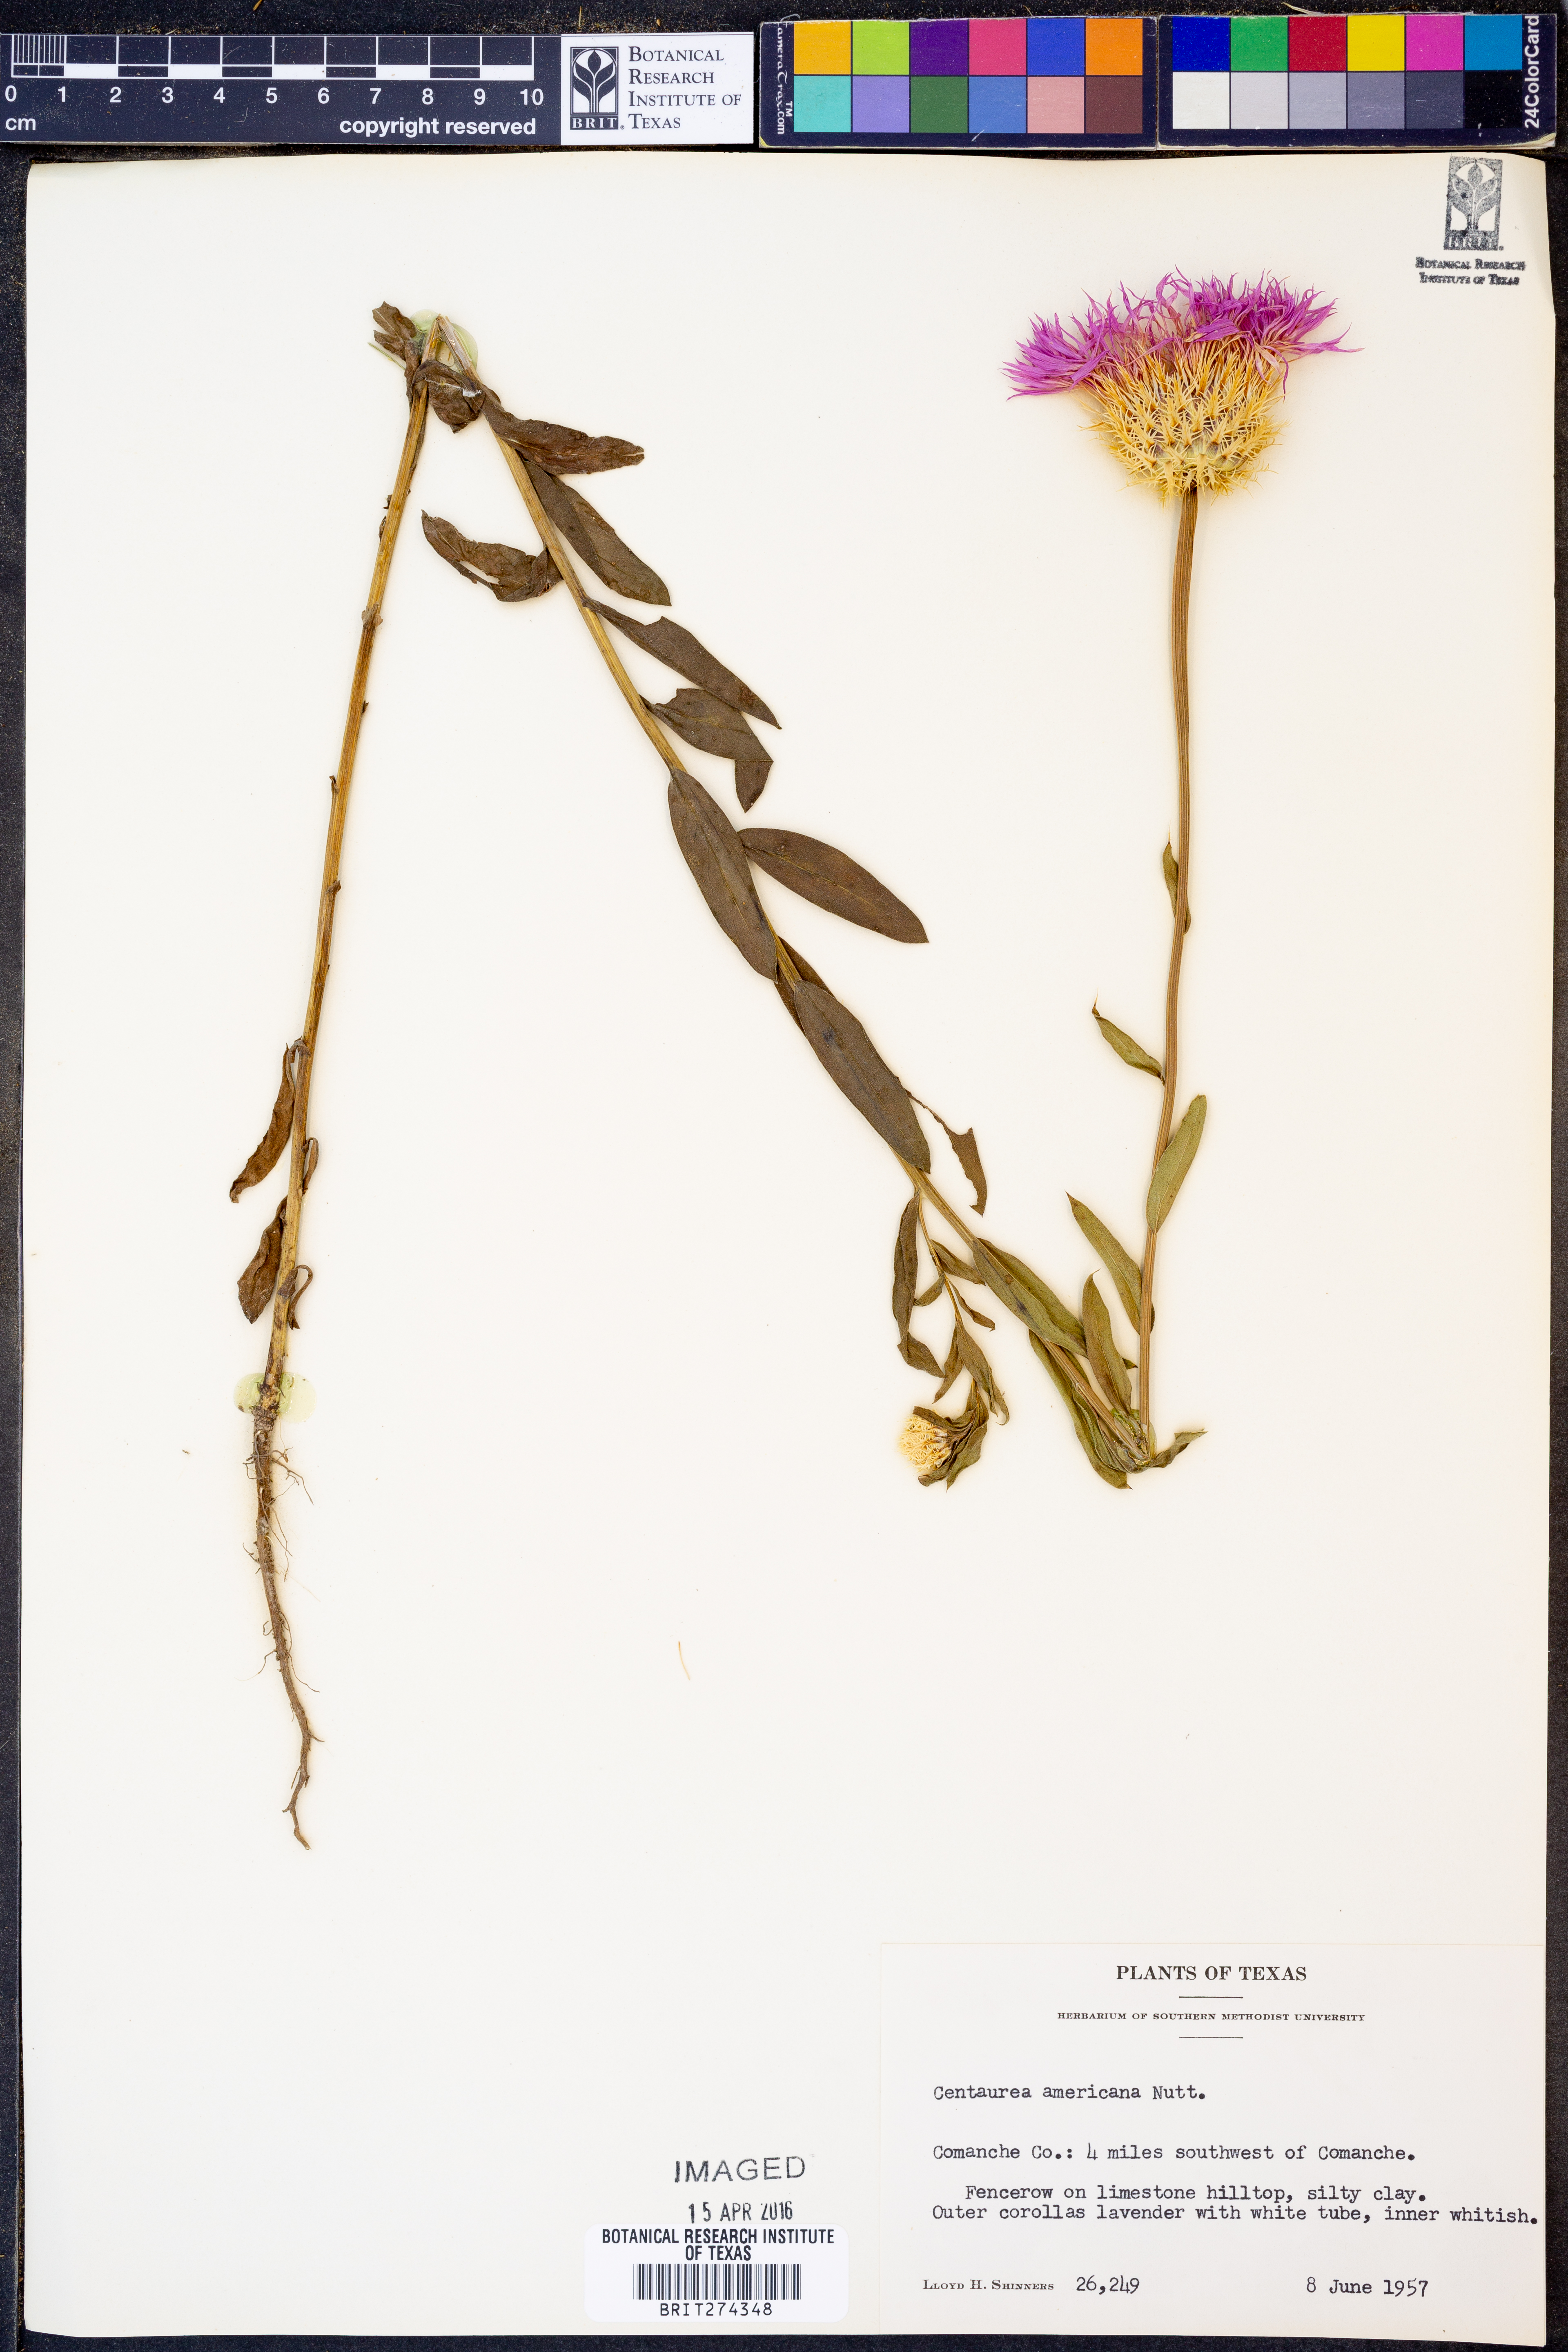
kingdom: Plantae
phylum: Tracheophyta
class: Magnoliopsida
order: Asterales
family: Asteraceae
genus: Plectocephalus
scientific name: Plectocephalus americanus
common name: American basket-flower
